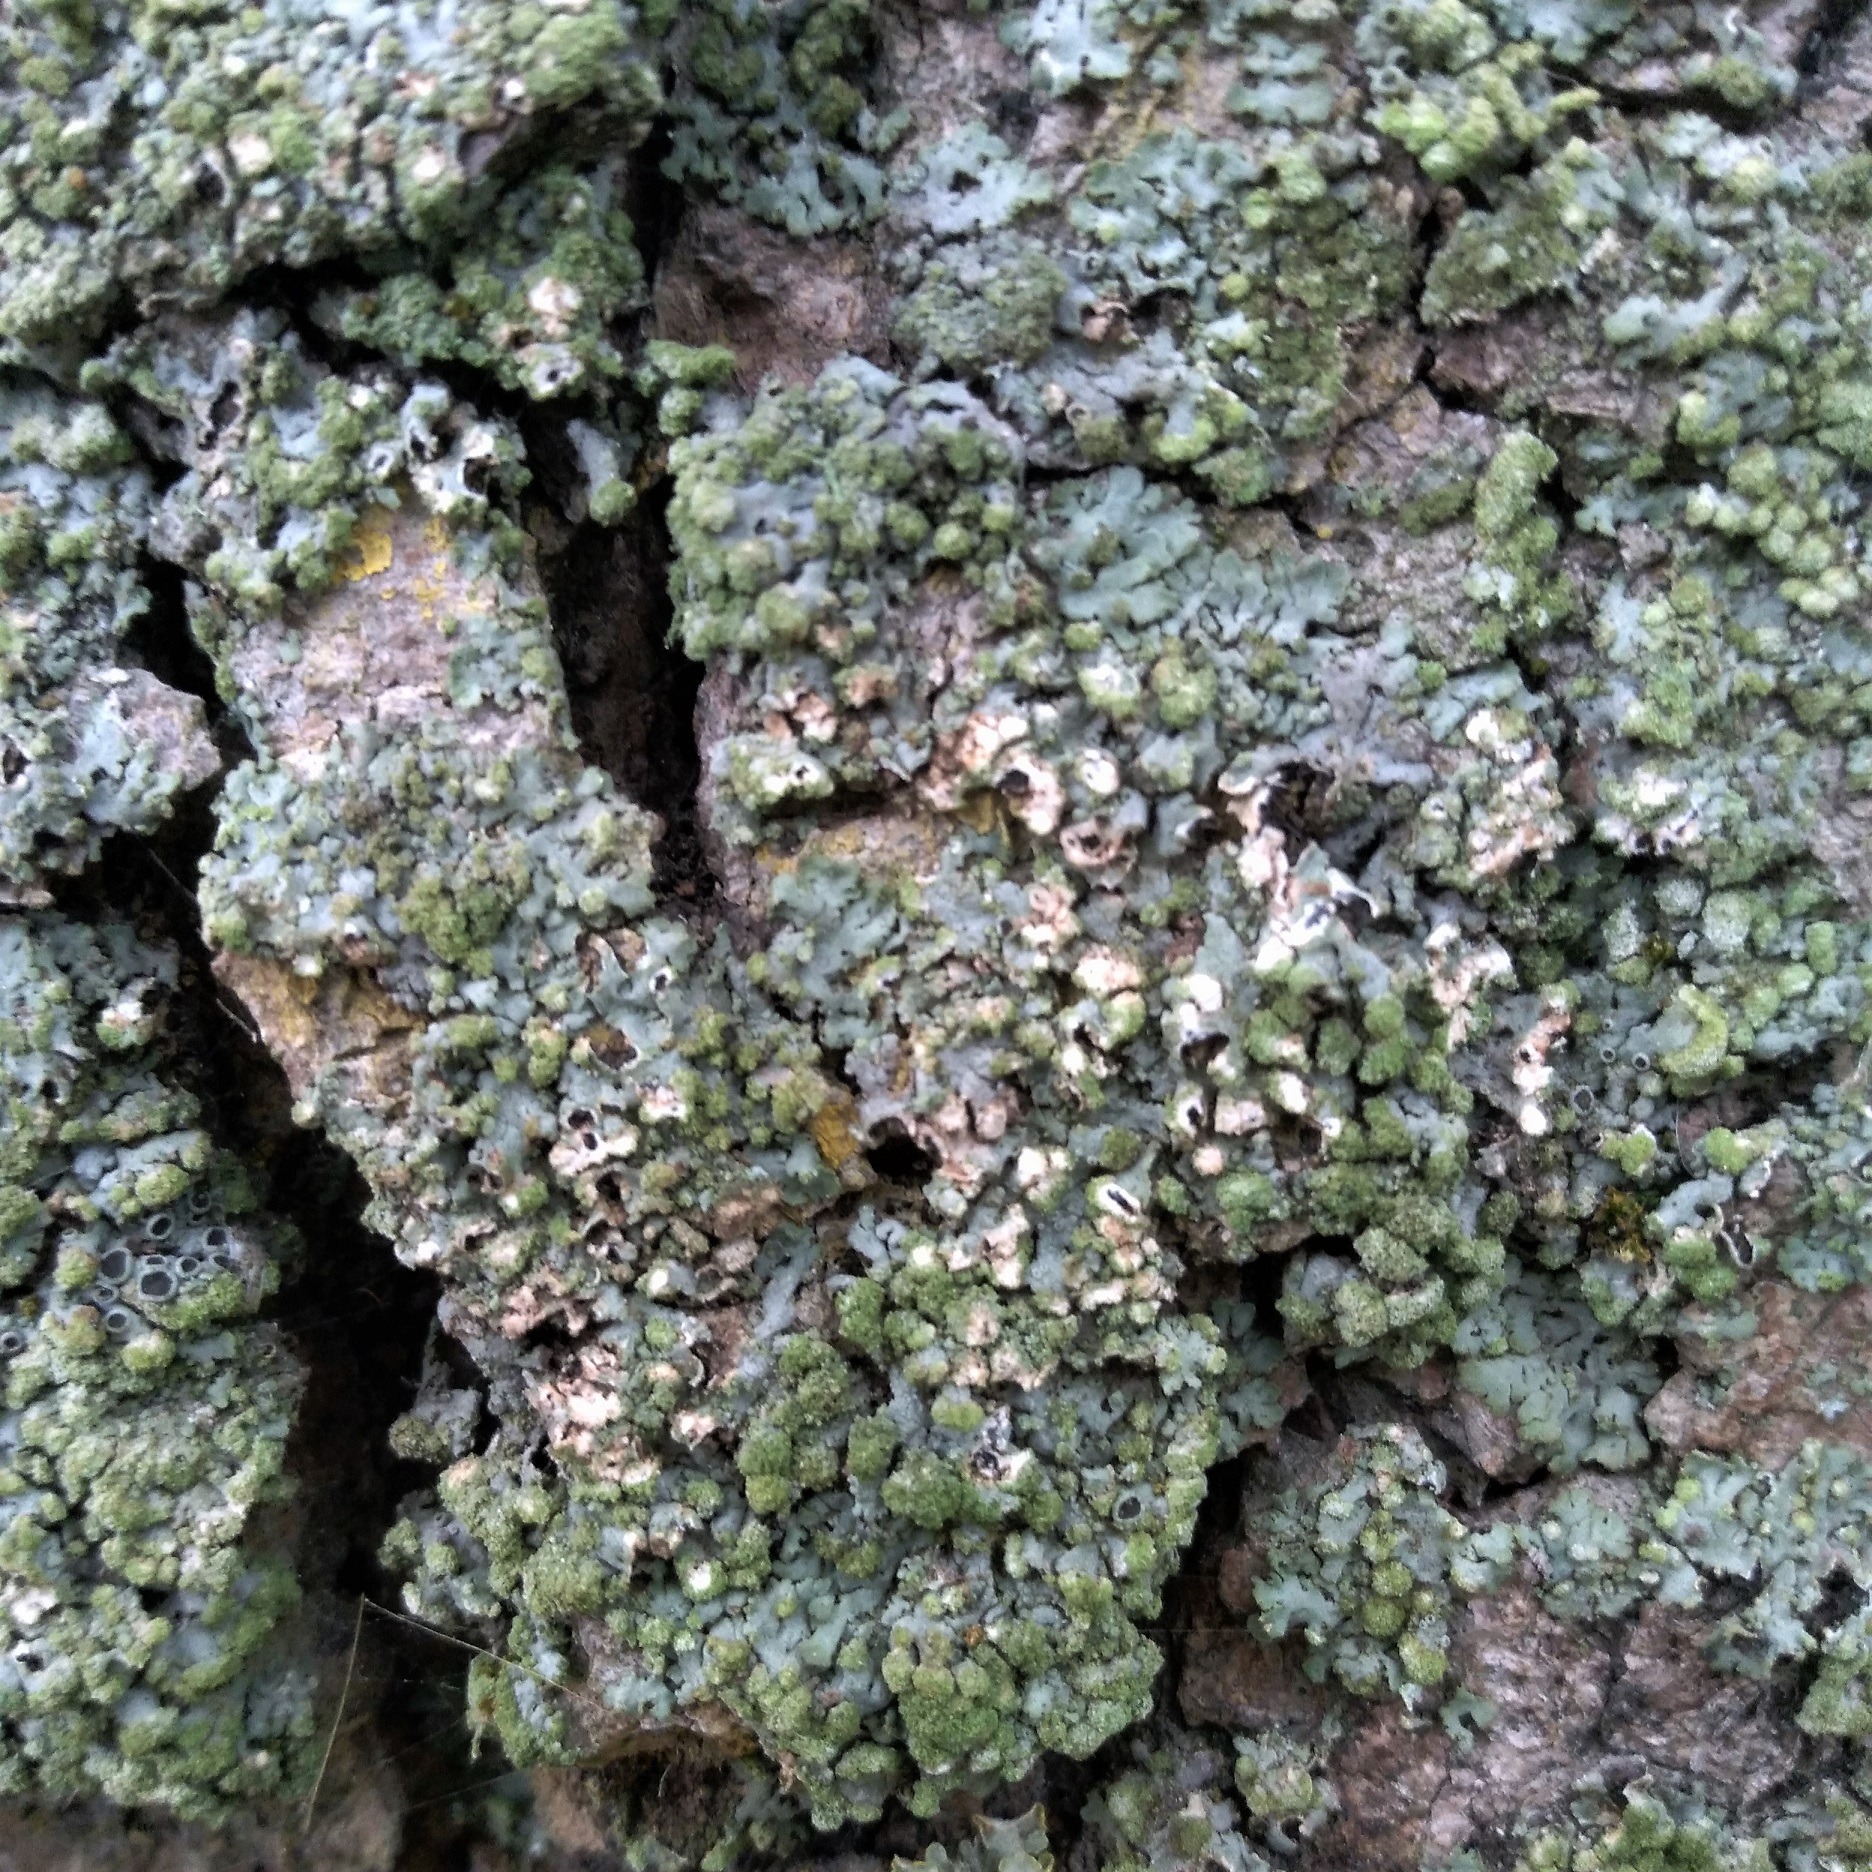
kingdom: Fungi
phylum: Ascomycota
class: Lecanoromycetes
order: Caliciales
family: Physciaceae
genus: Phaeophyscia
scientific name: Phaeophyscia orbicularis
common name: Grågrøn rosetlav
